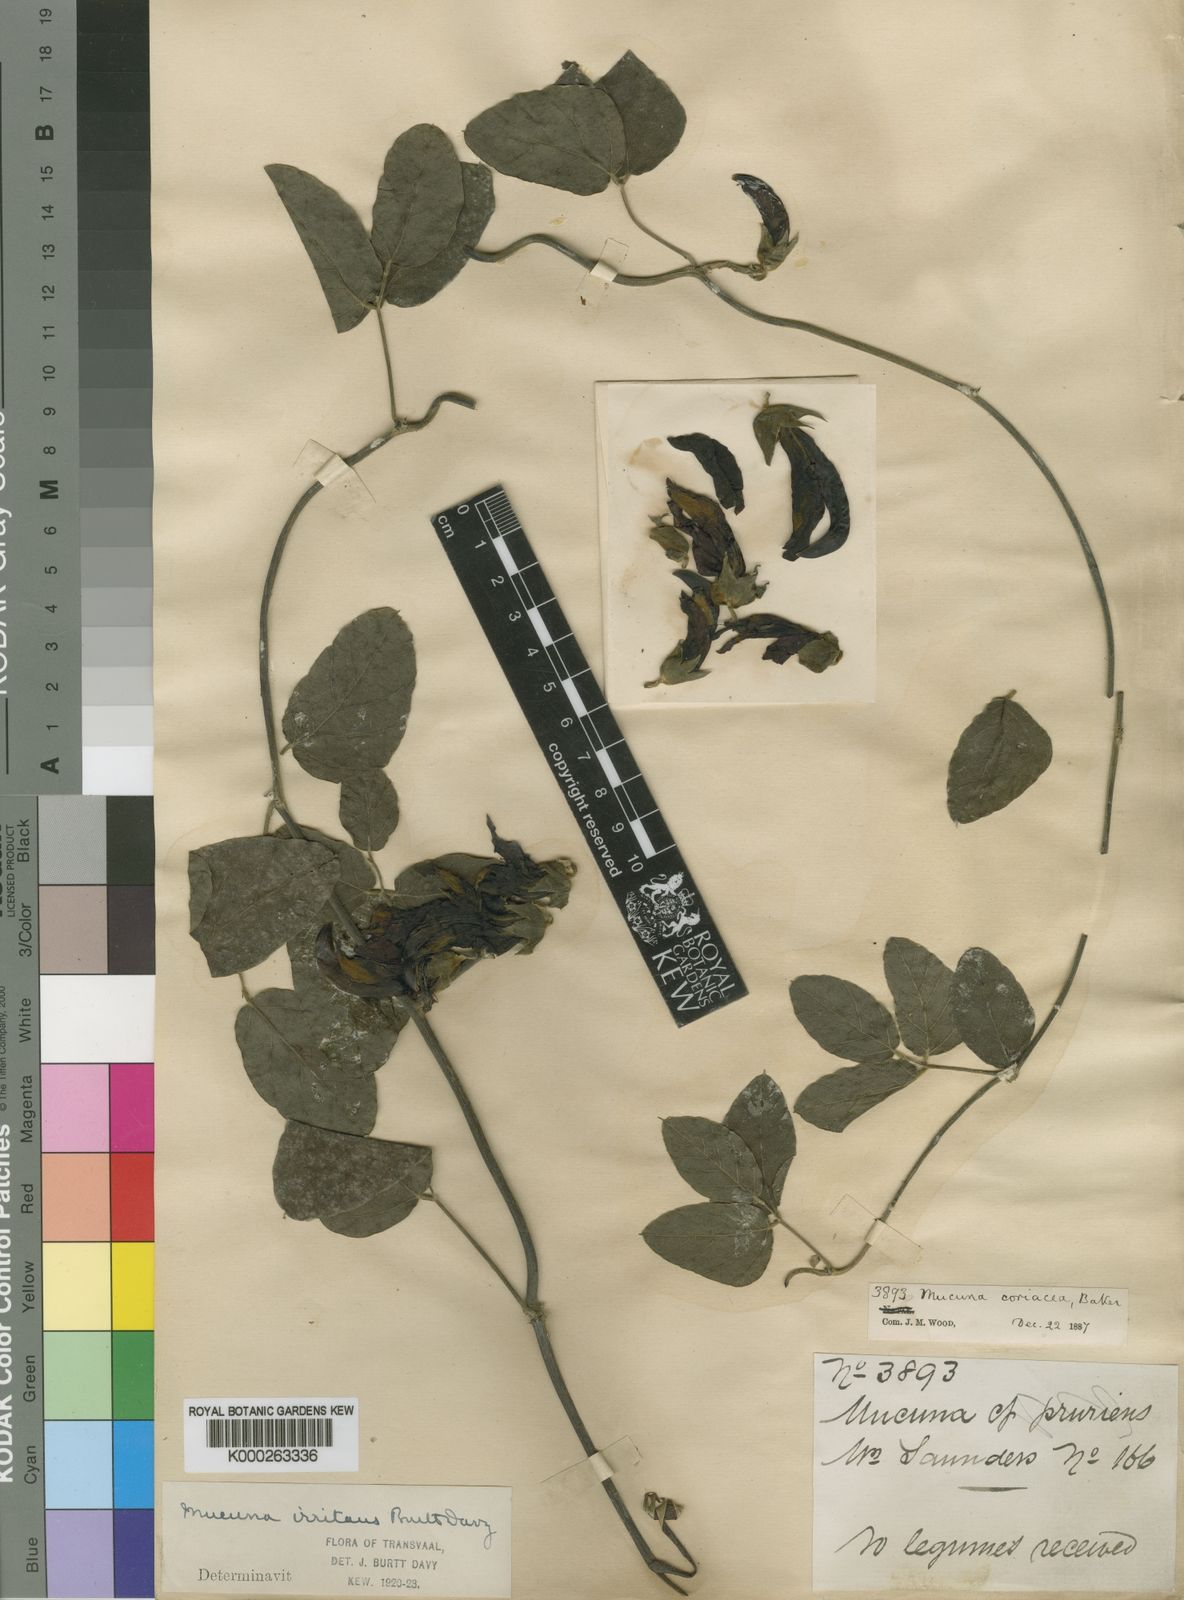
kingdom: Plantae
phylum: Tracheophyta
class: Magnoliopsida
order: Fabales
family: Fabaceae
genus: Mucuna
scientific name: Mucuna coriacea
